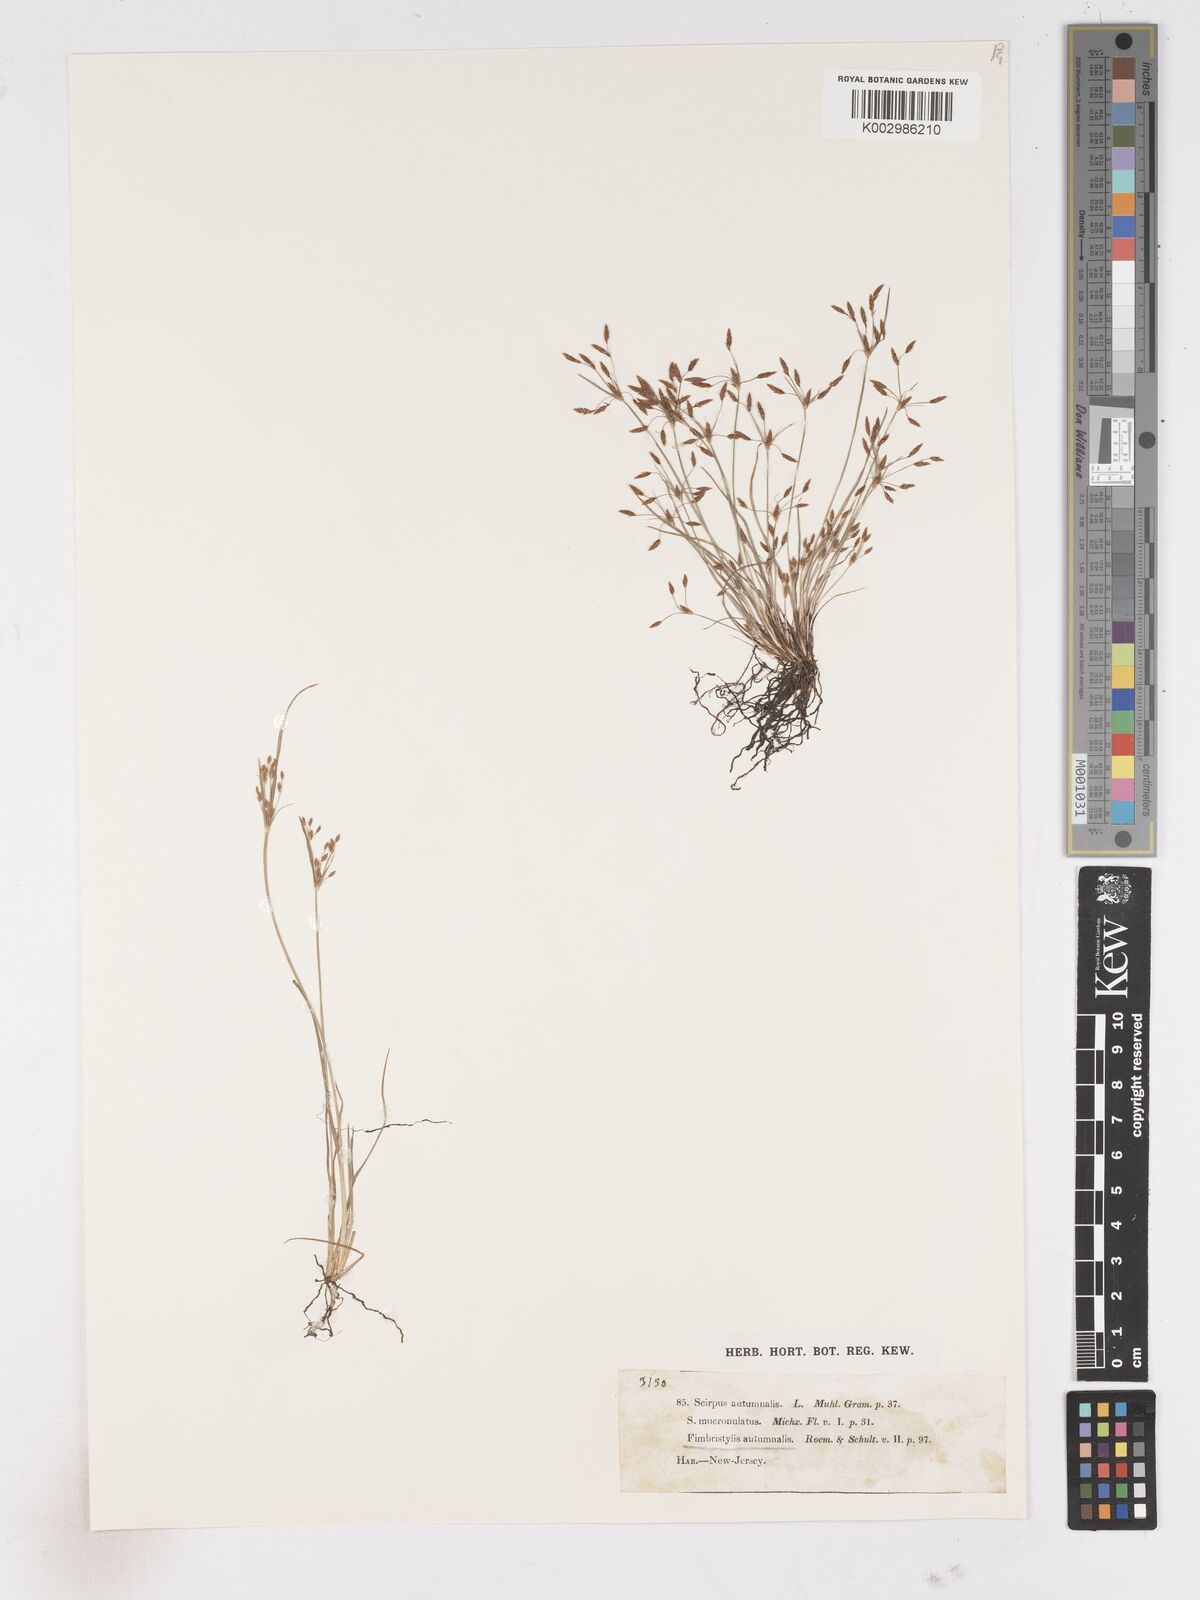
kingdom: Plantae
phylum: Tracheophyta
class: Liliopsida
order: Poales
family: Cyperaceae
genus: Fimbristylis
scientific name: Fimbristylis autumnalis
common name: Slender fimbristylis
